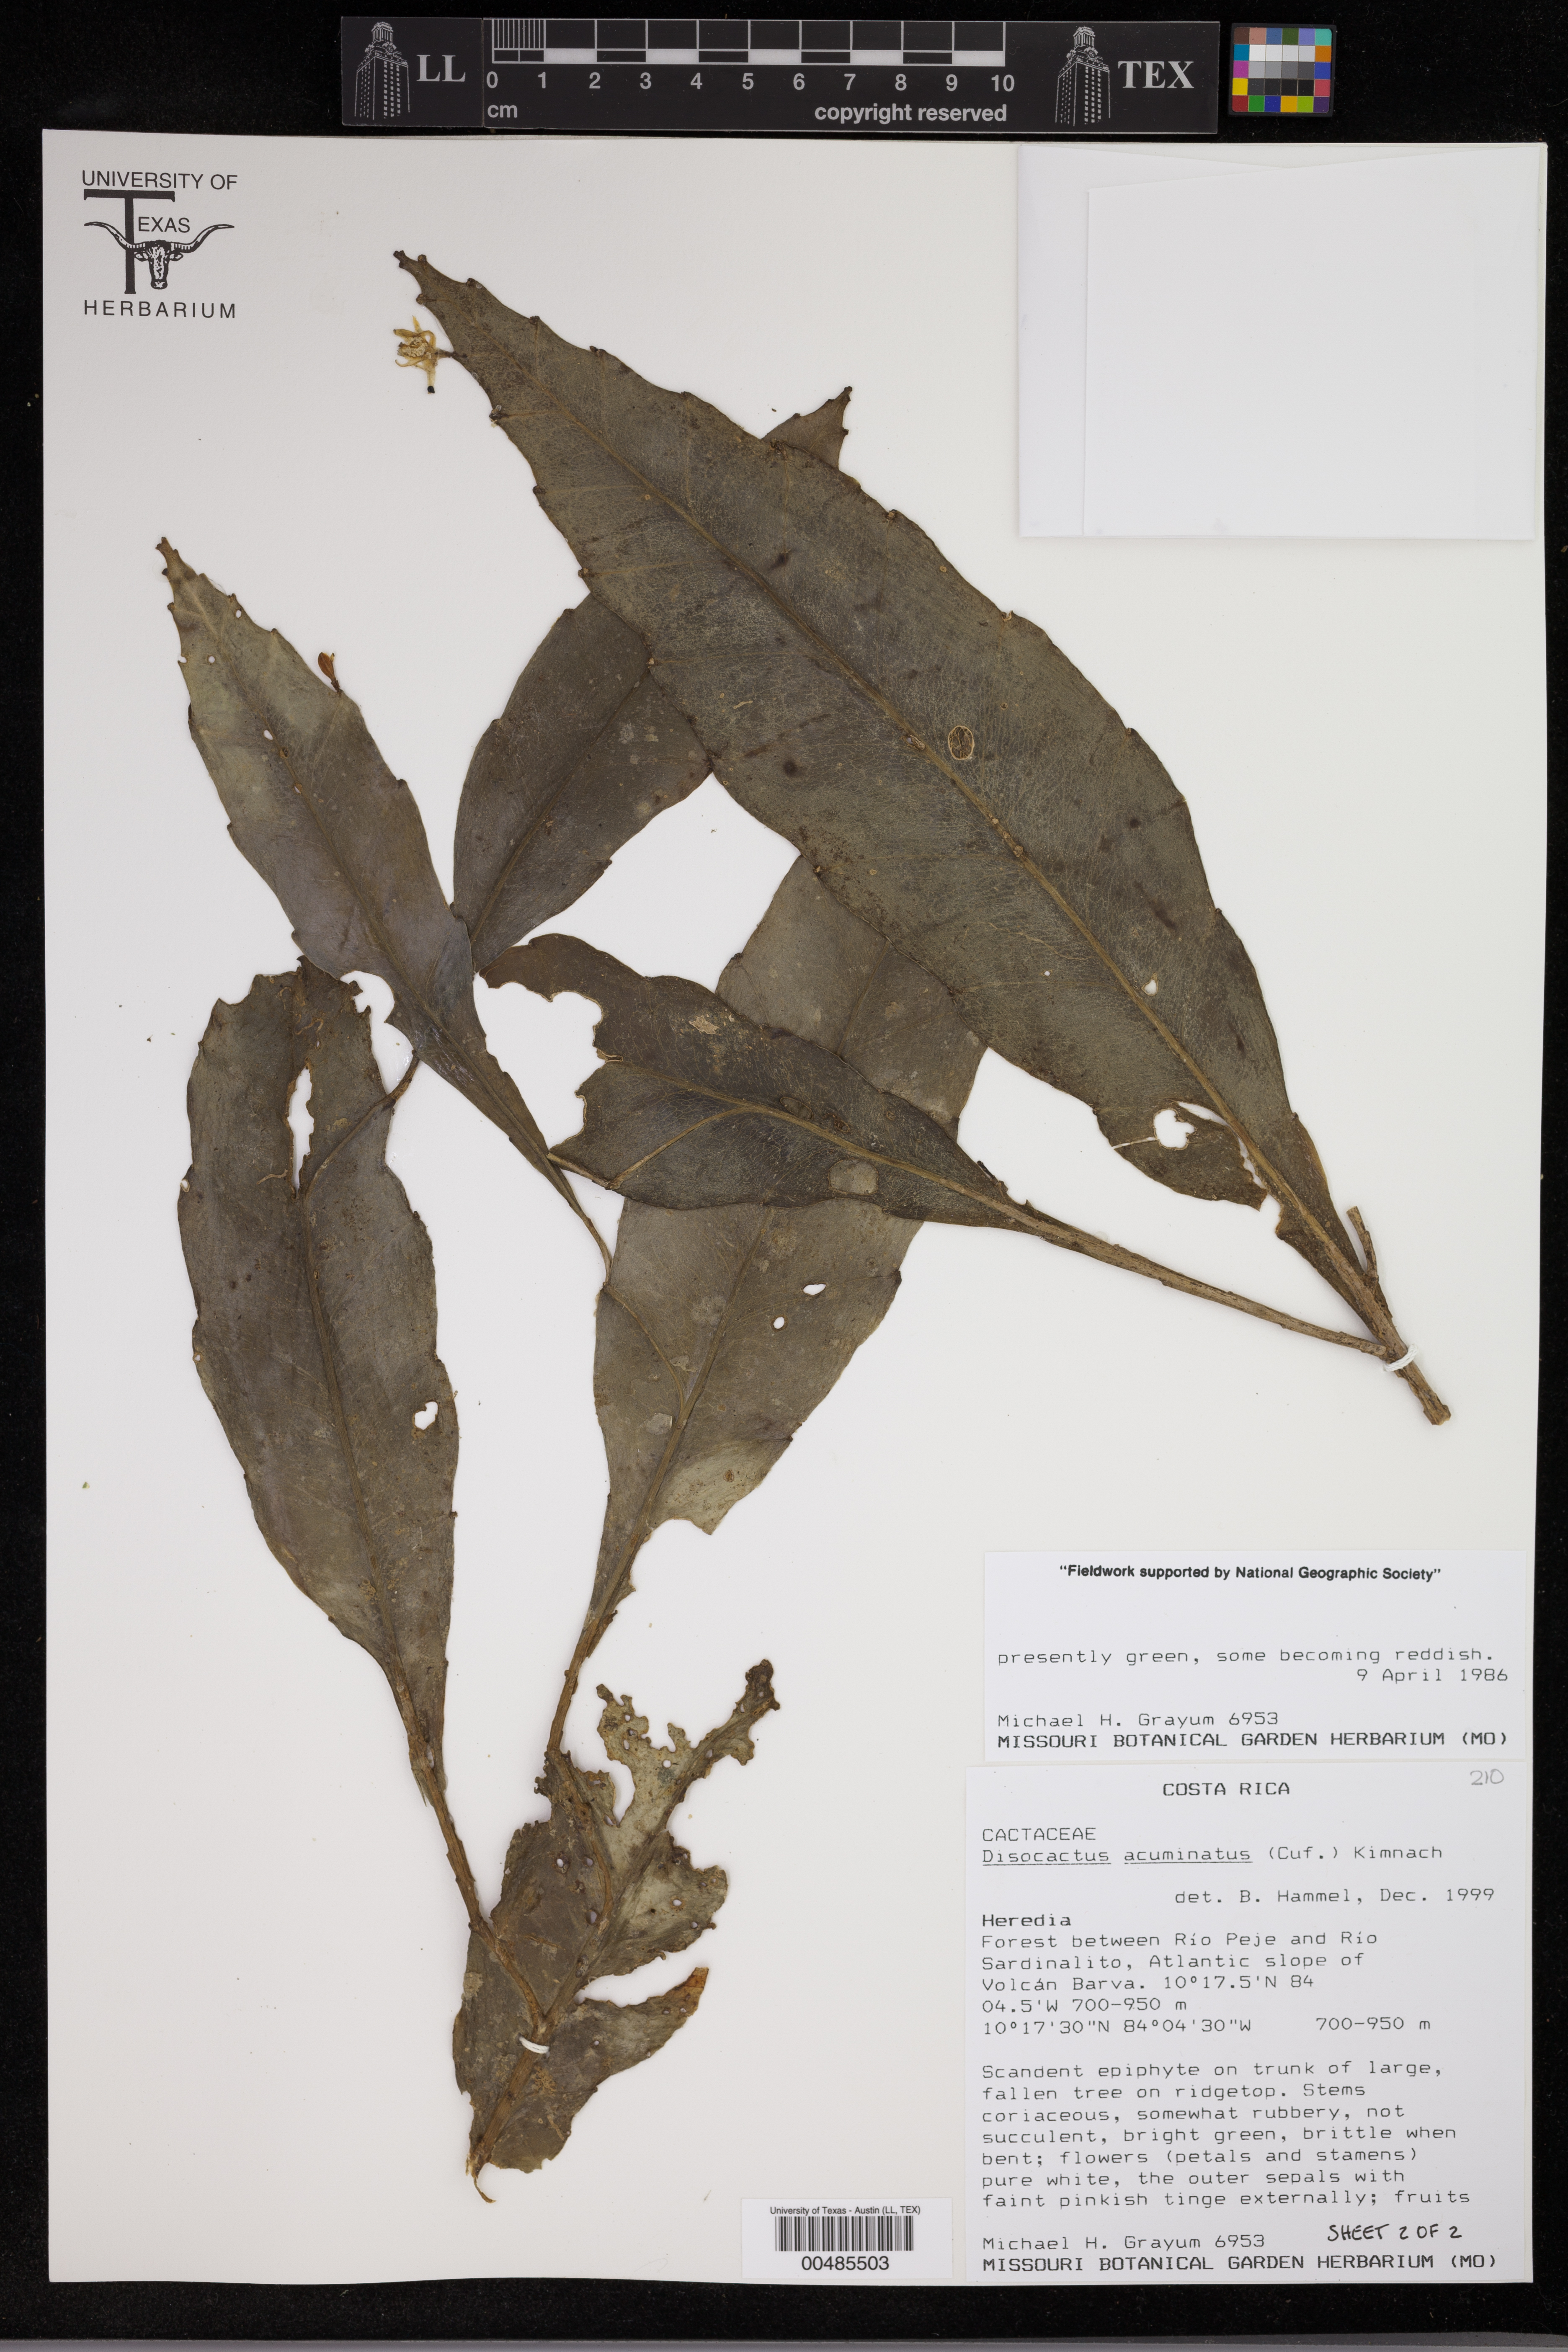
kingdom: Plantae
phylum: Tracheophyta
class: Magnoliopsida
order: Caryophyllales
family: Cactaceae
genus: Pseudorhipsalis
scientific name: Pseudorhipsalis acuminata
